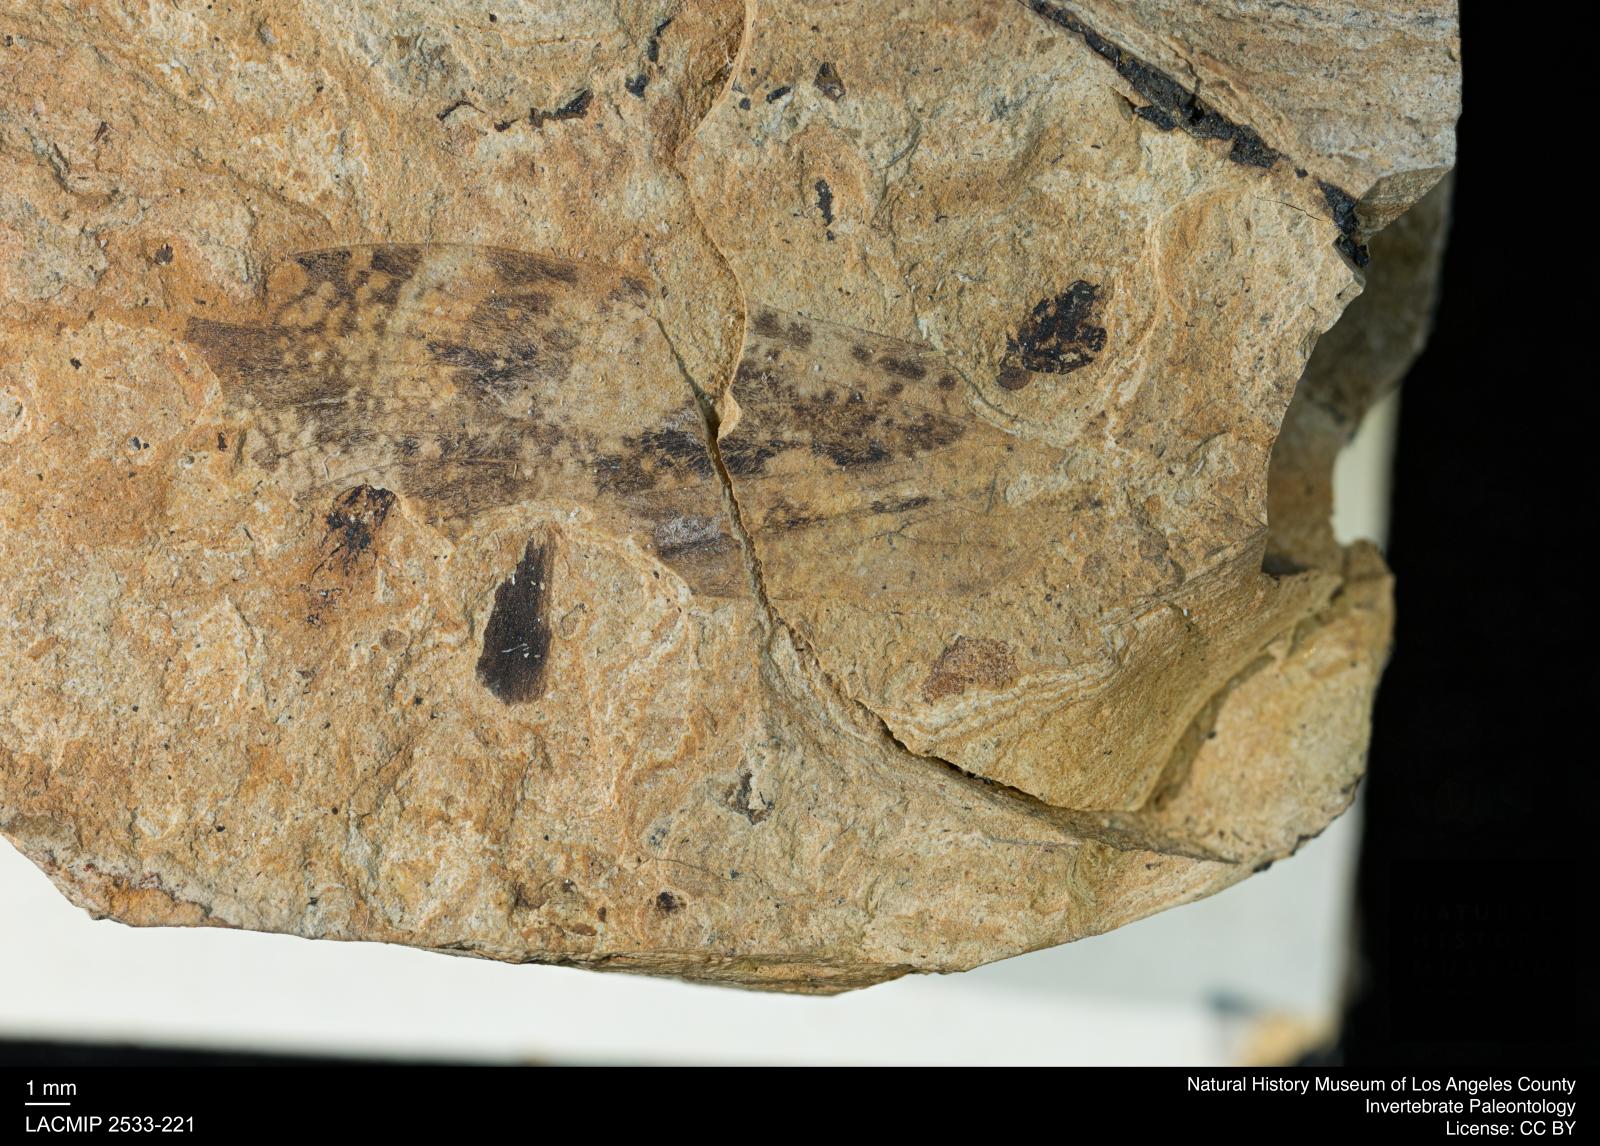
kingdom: Animalia
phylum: Arthropoda
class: Insecta
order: Trichoptera
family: Phryganeidae
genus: Phryganea
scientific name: Phryganea lithophila
